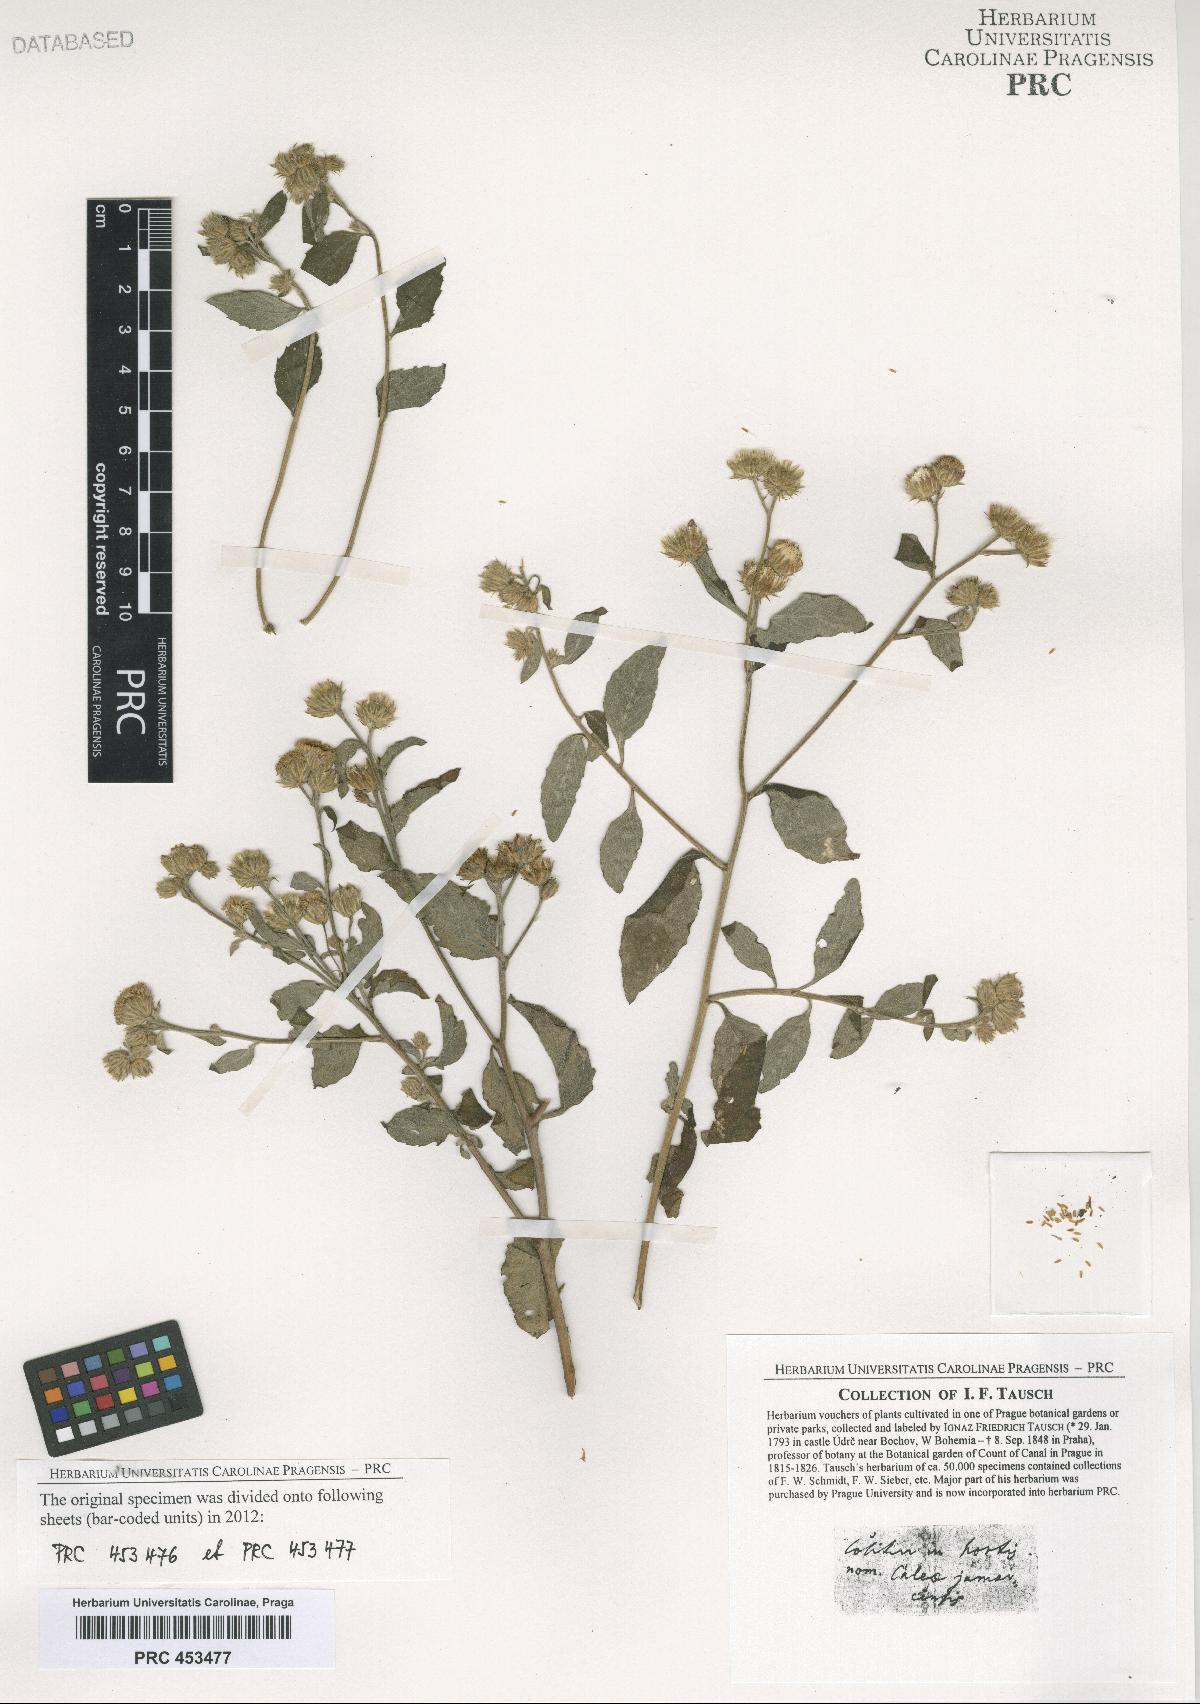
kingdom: Plantae
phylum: Tracheophyta
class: Magnoliopsida
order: Asterales
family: Asteraceae
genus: Vernonia
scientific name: Vernonia
